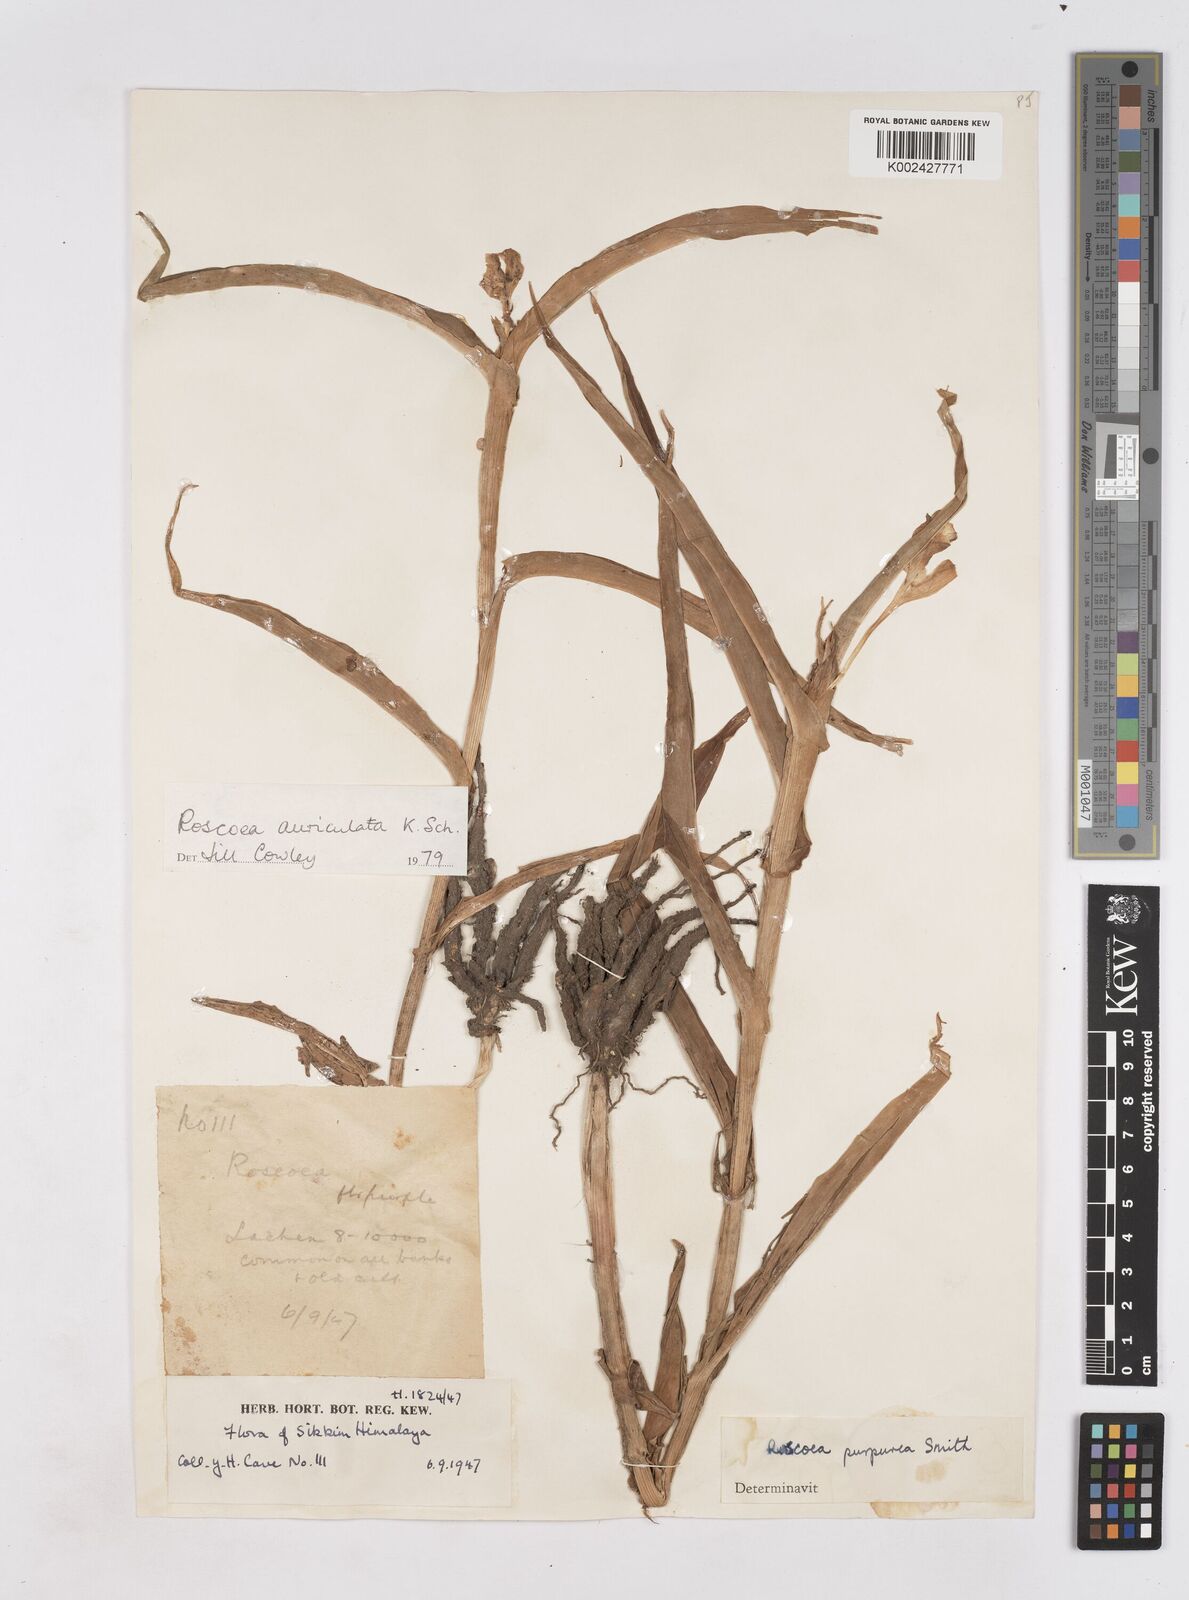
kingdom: Plantae
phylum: Tracheophyta
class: Liliopsida
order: Zingiberales
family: Zingiberaceae
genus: Roscoea
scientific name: Roscoea auriculata
